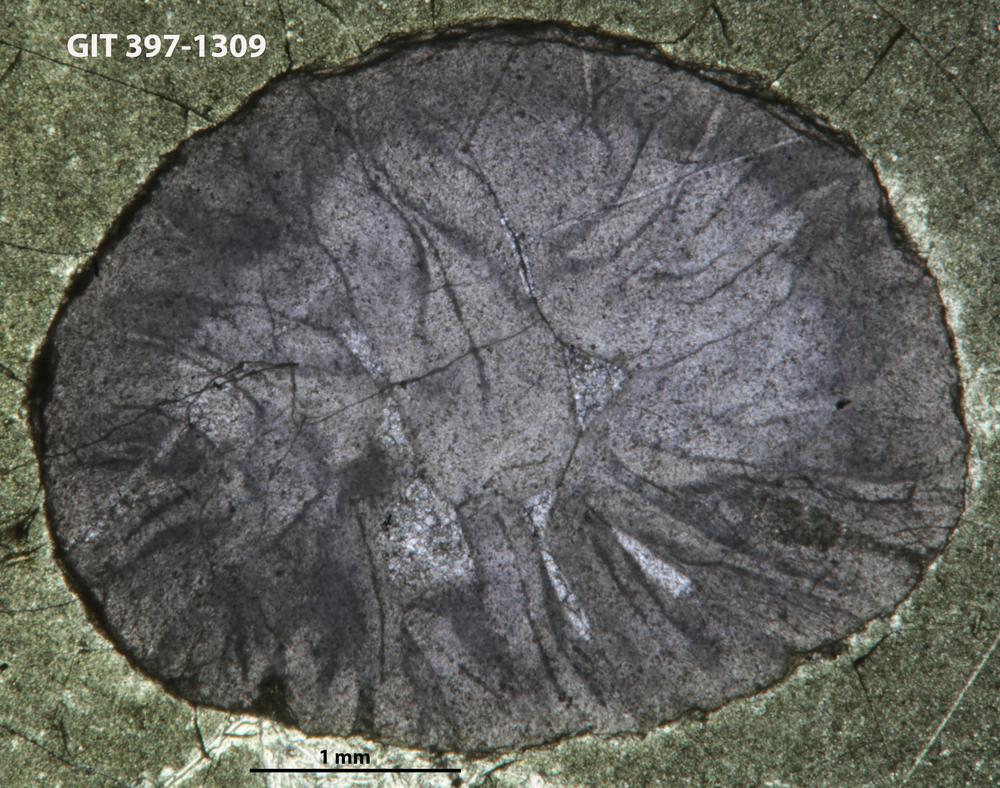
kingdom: Animalia
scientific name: Animalia
